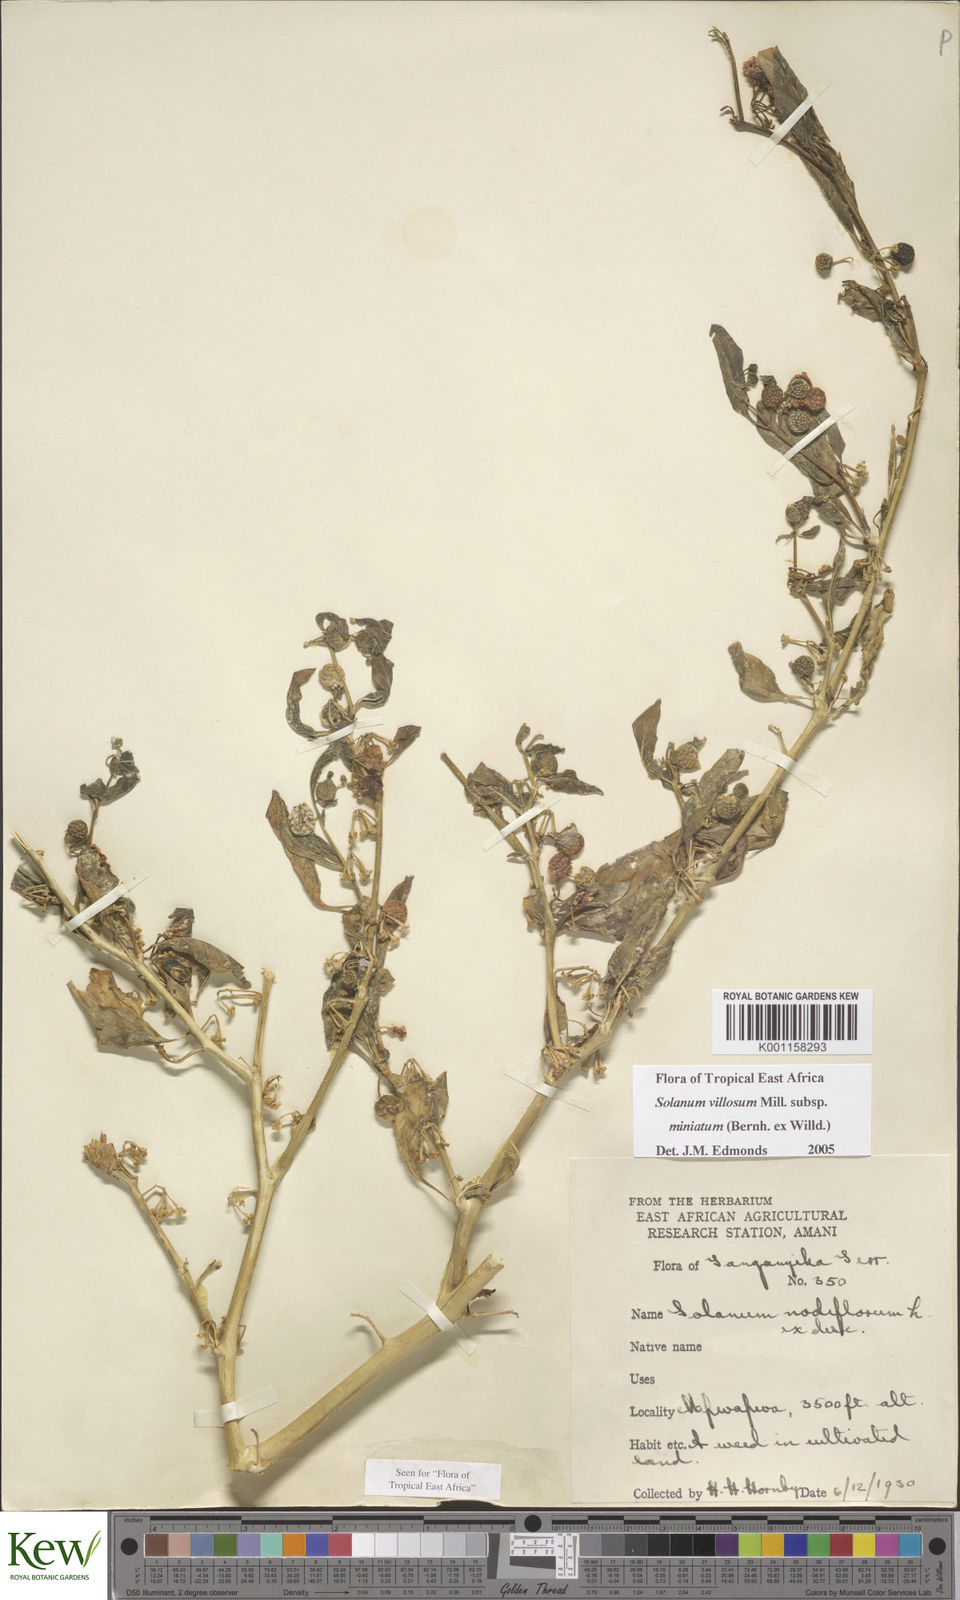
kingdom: Plantae
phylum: Tracheophyta
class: Magnoliopsida
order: Solanales
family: Solanaceae
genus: Solanum
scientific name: Solanum villosum
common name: Red nightshade
